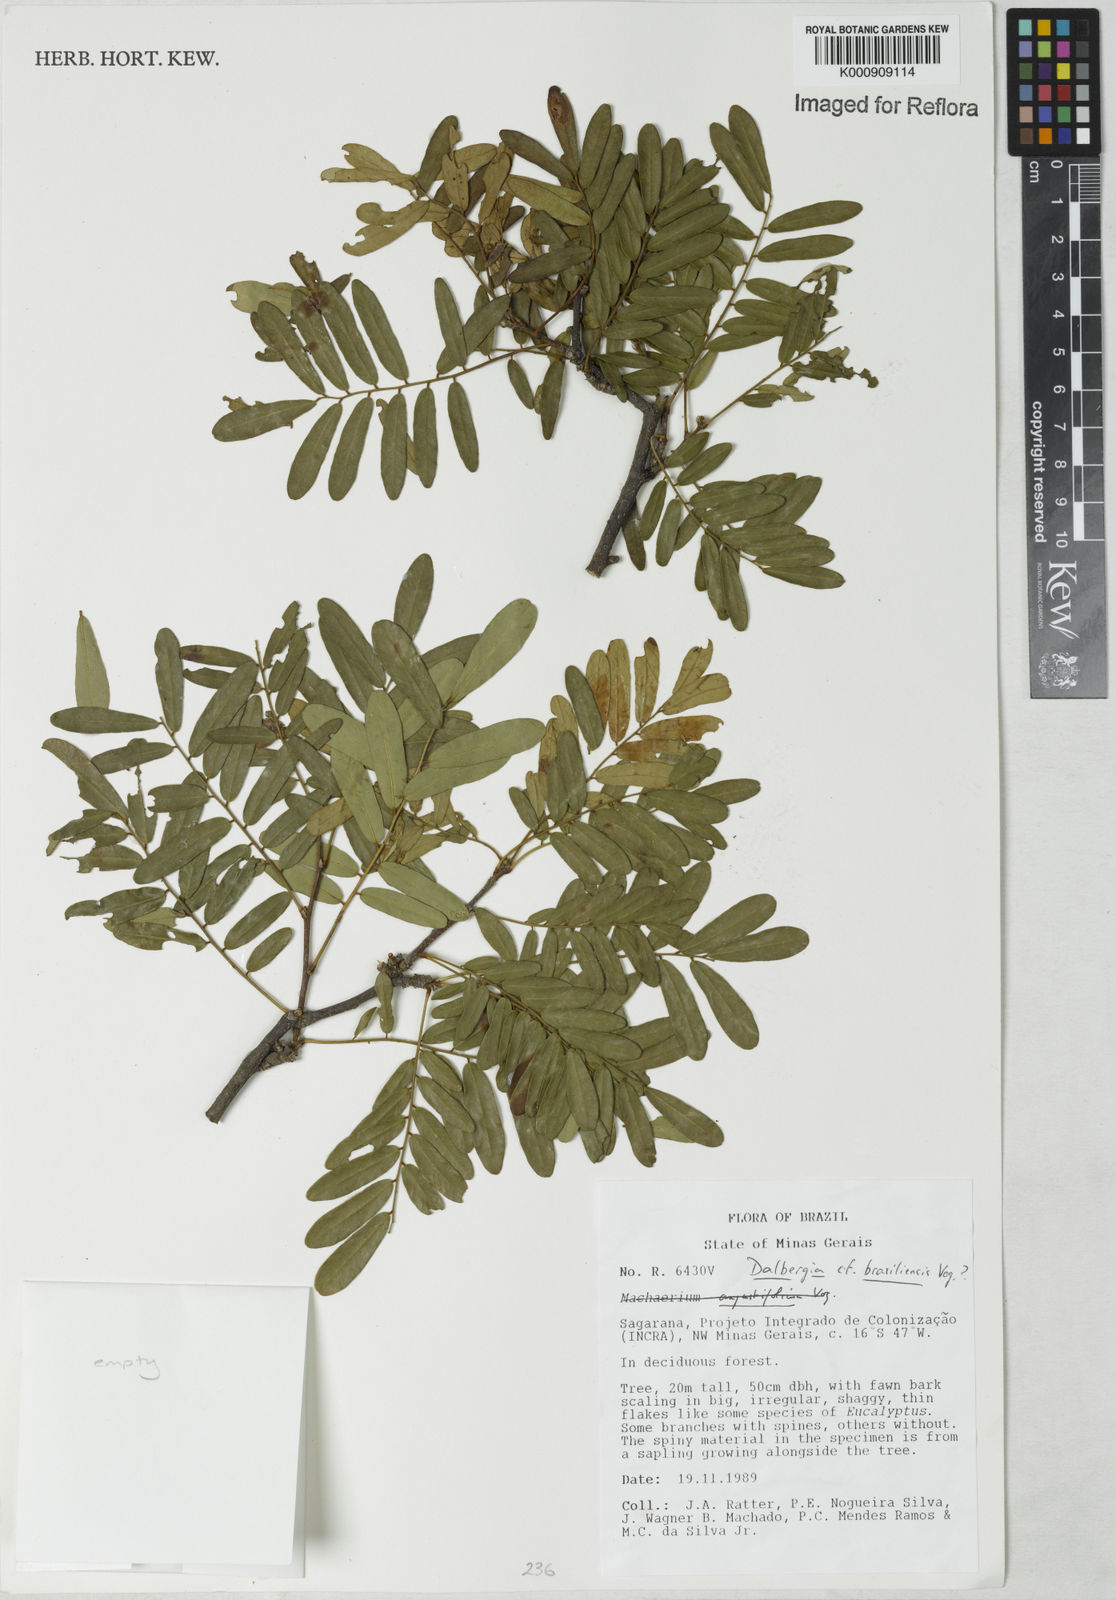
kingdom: Plantae
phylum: Tracheophyta
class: Magnoliopsida
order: Fabales
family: Fabaceae
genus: Dalbergia
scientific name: Dalbergia brasiliensis
